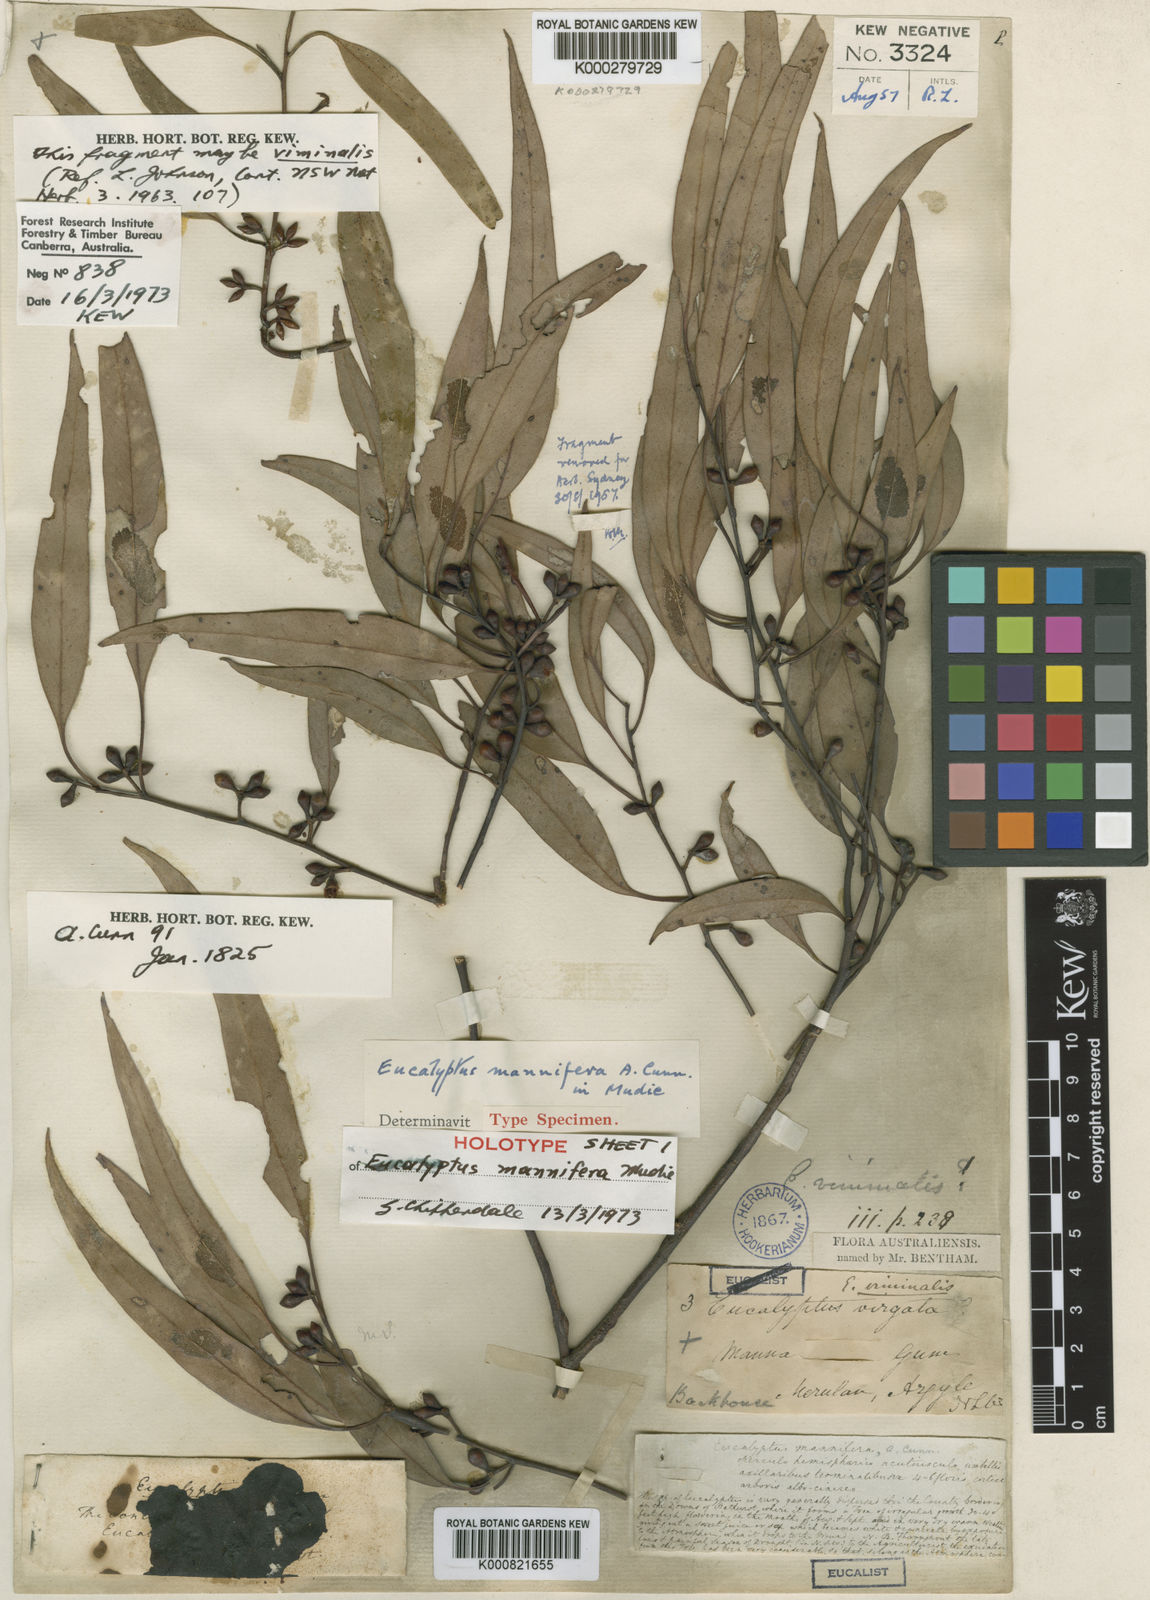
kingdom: Plantae
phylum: Tracheophyta
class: Magnoliopsida
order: Myrtales
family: Myrtaceae
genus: Eucalyptus
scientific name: Eucalyptus mannifera
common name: Manna gum
